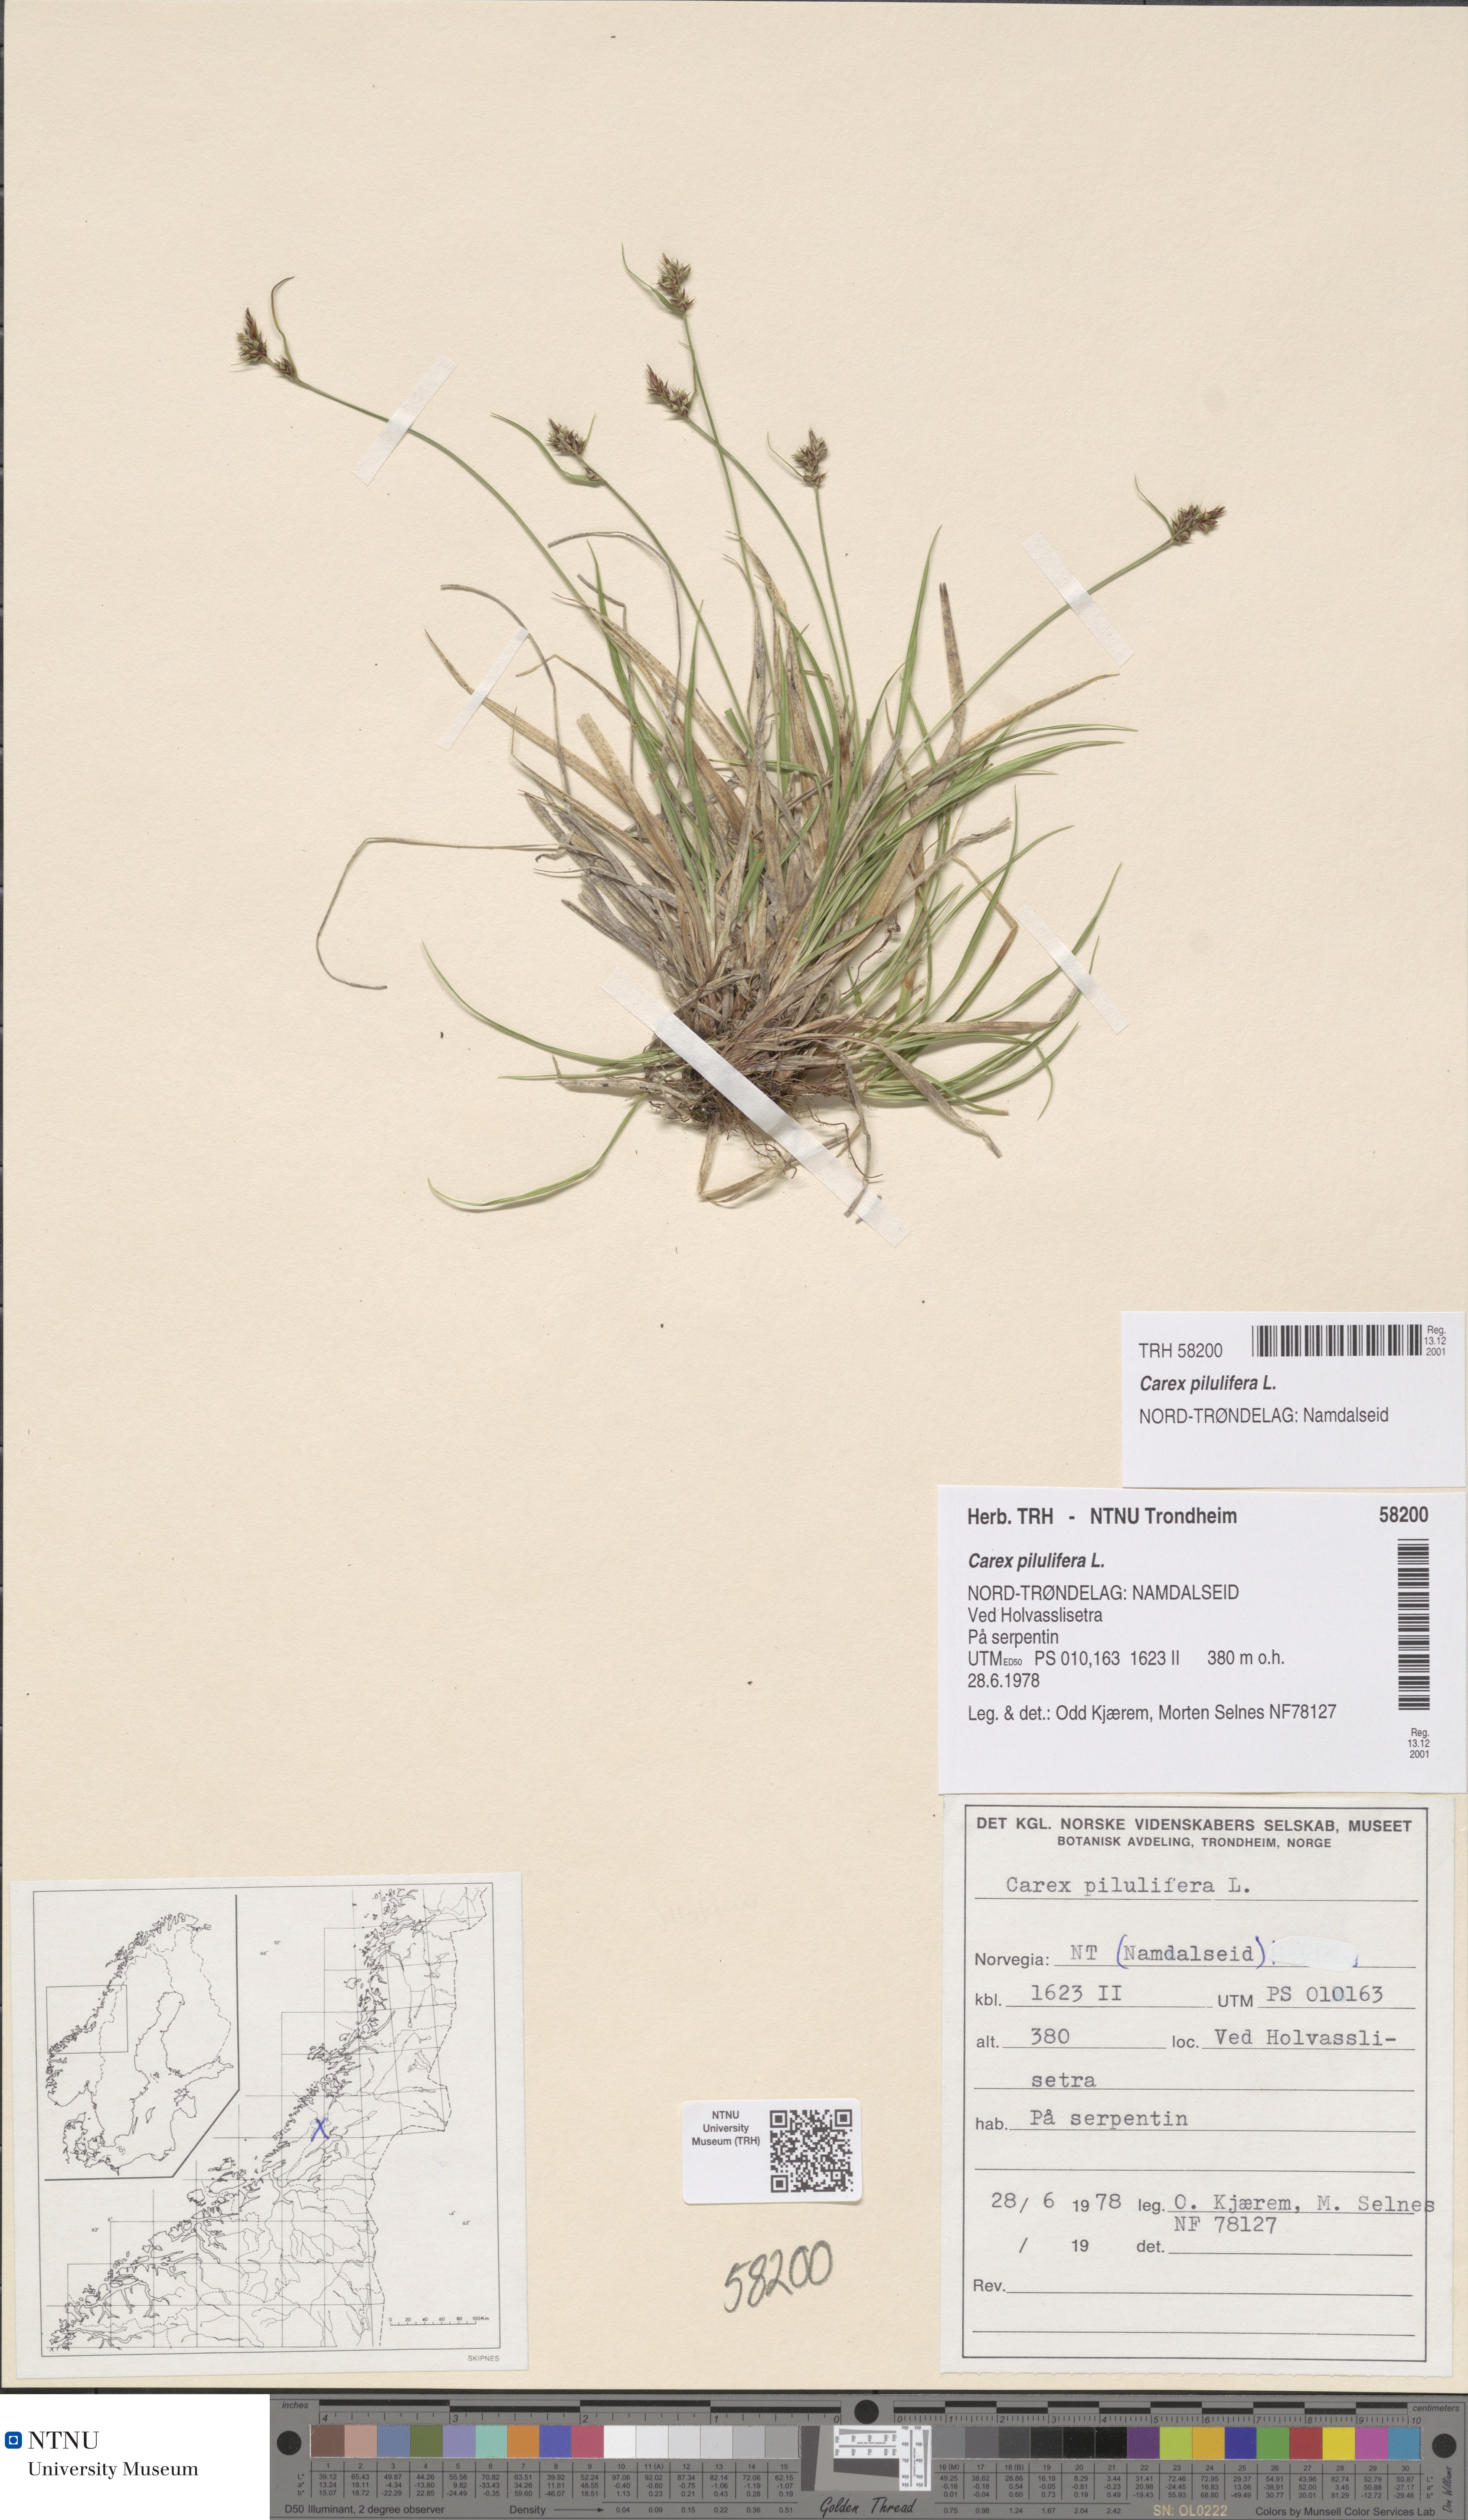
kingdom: Plantae
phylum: Tracheophyta
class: Liliopsida
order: Poales
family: Cyperaceae
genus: Carex
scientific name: Carex pilulifera
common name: Pill sedge
